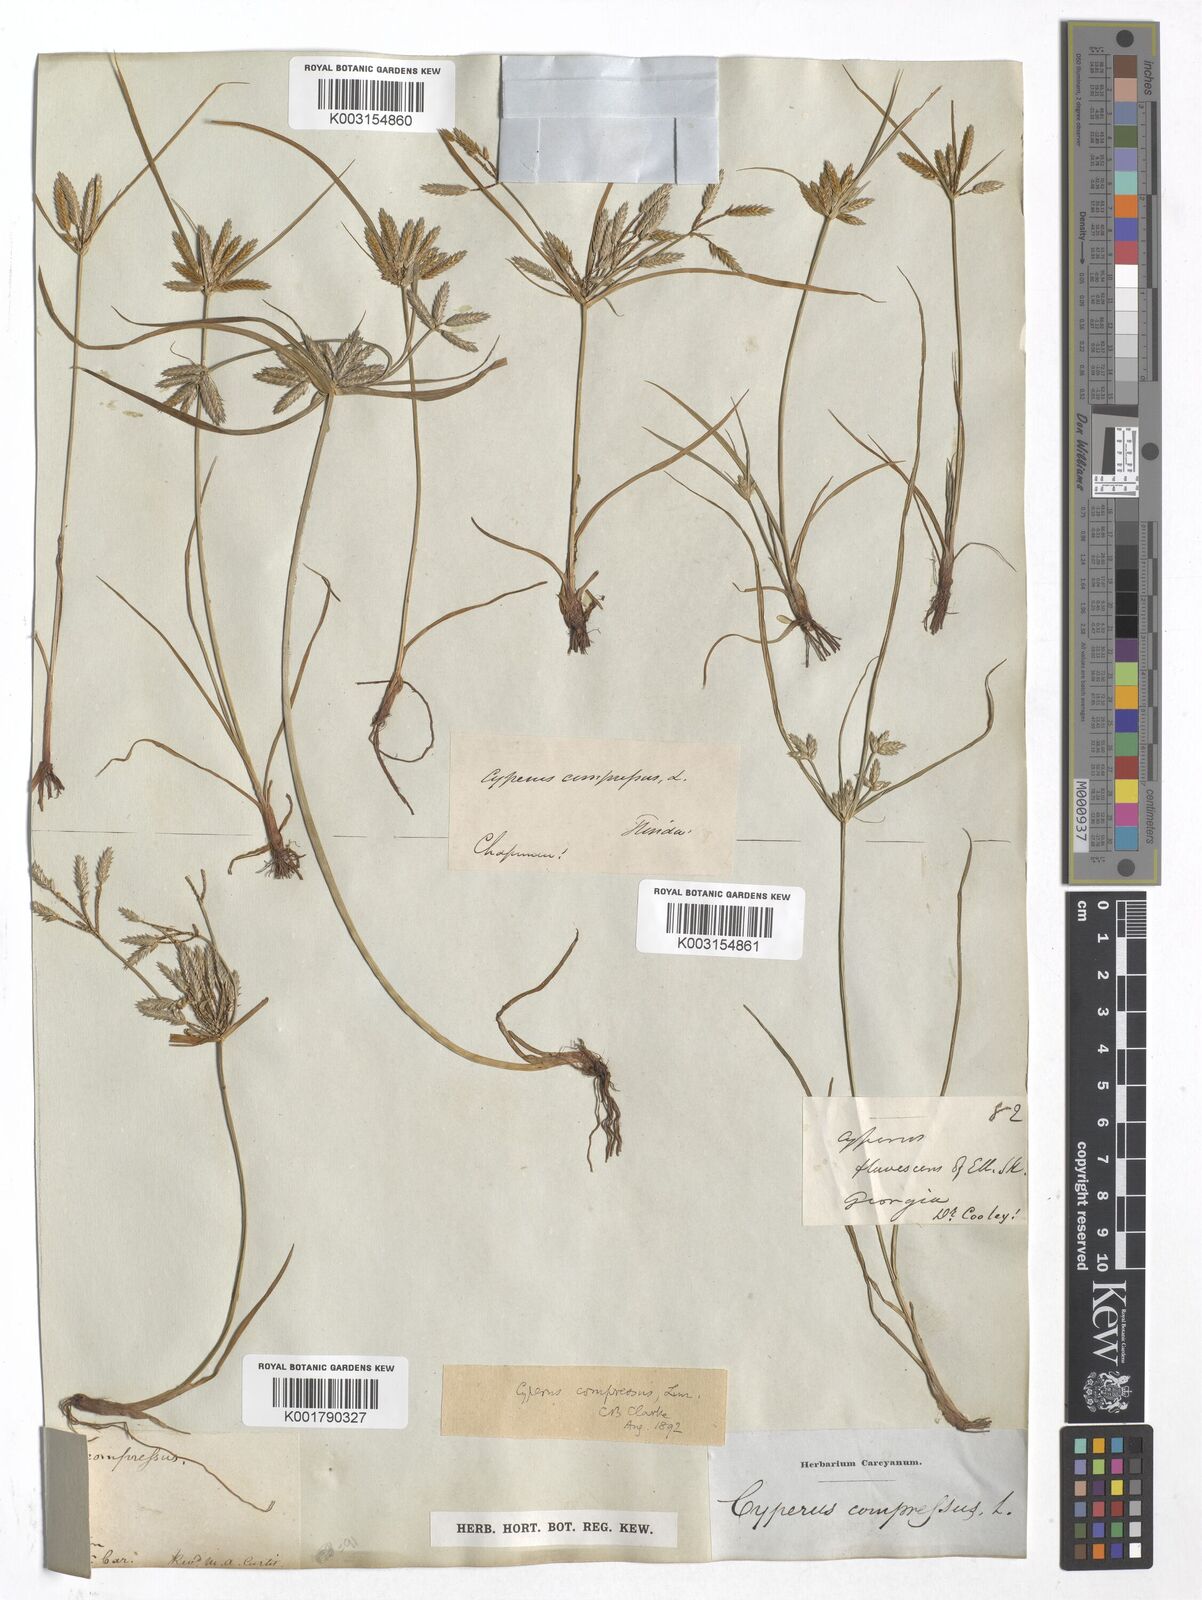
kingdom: Plantae
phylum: Tracheophyta
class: Liliopsida
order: Poales
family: Cyperaceae
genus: Cyperus
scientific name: Cyperus compressus
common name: Poorland flatsedge
